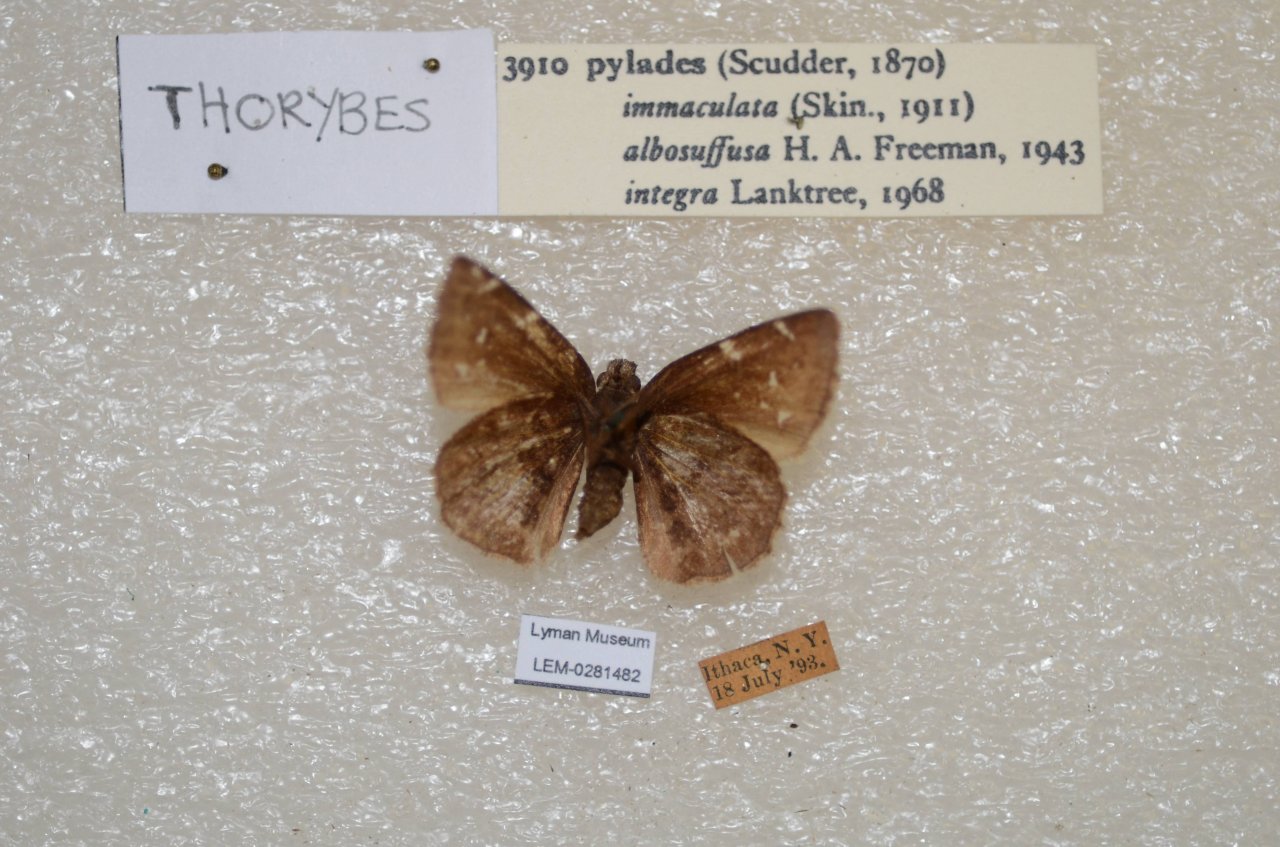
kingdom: Animalia
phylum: Arthropoda
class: Insecta
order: Lepidoptera
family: Hesperiidae
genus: Autochton
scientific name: Autochton
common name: Northern Cloudywing
